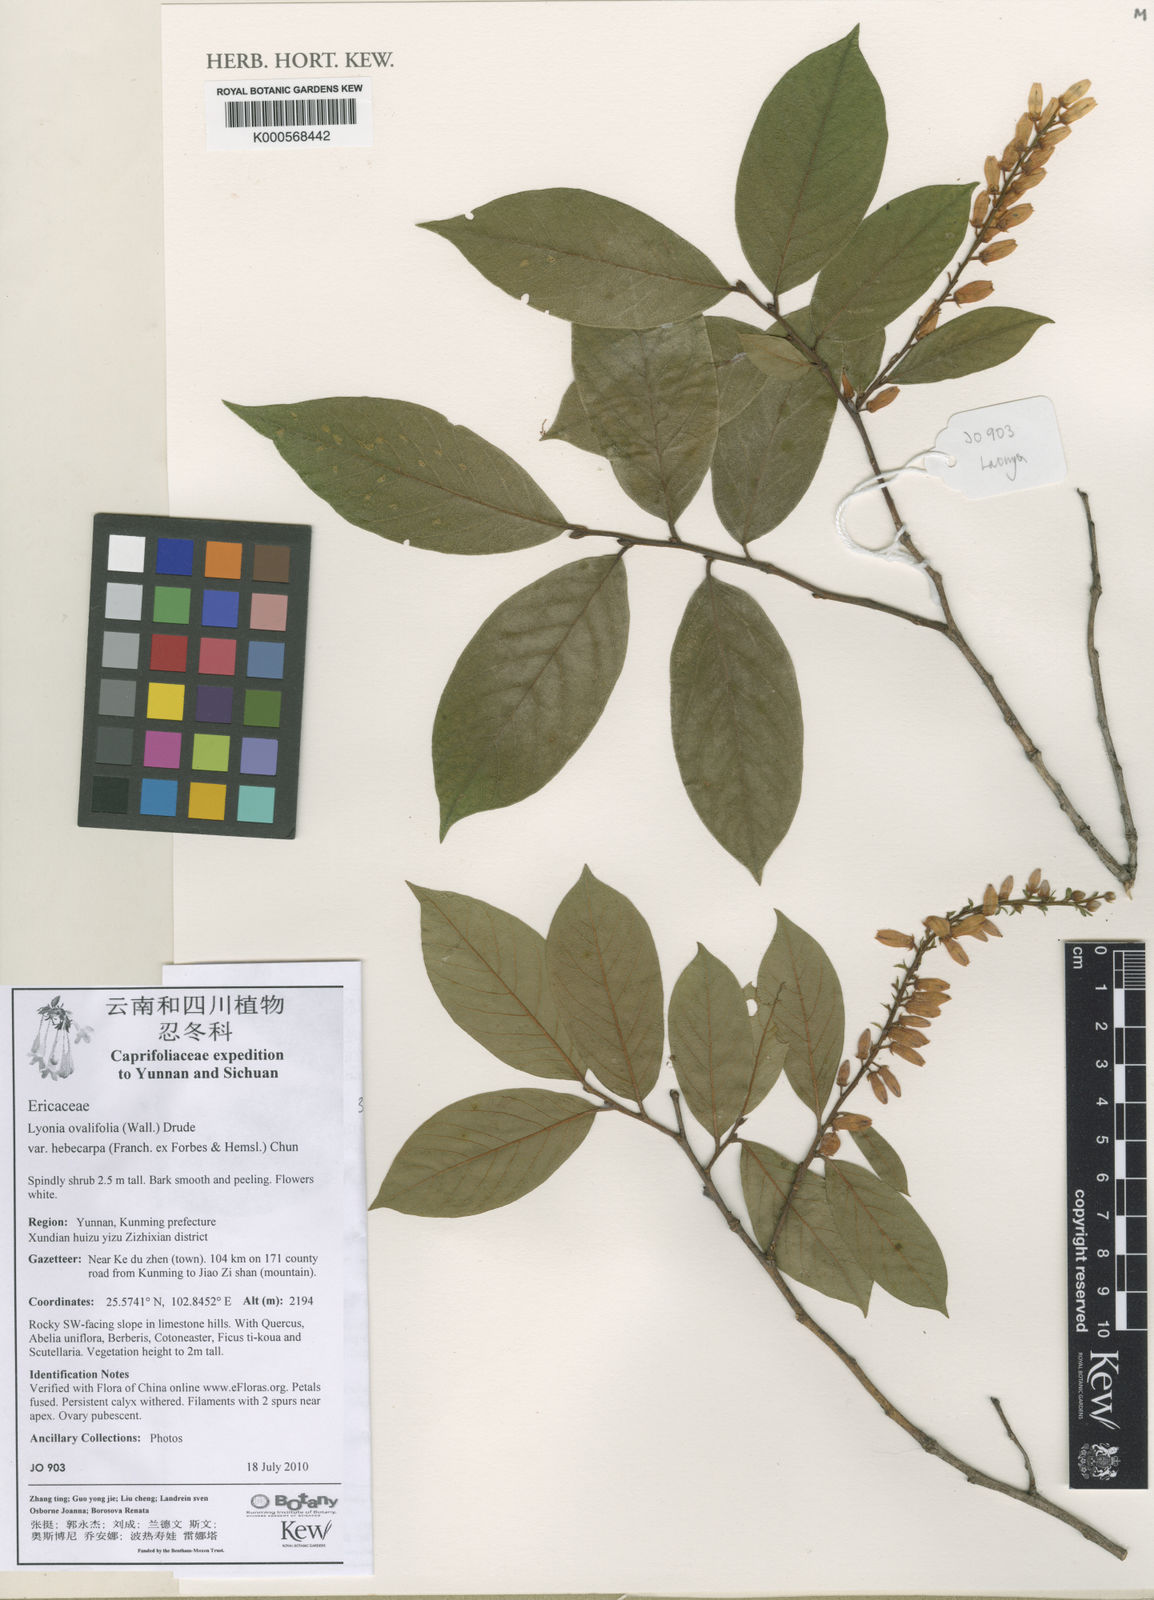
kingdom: Plantae
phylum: Tracheophyta
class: Magnoliopsida
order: Ericales
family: Ericaceae
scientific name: Ericaceae
